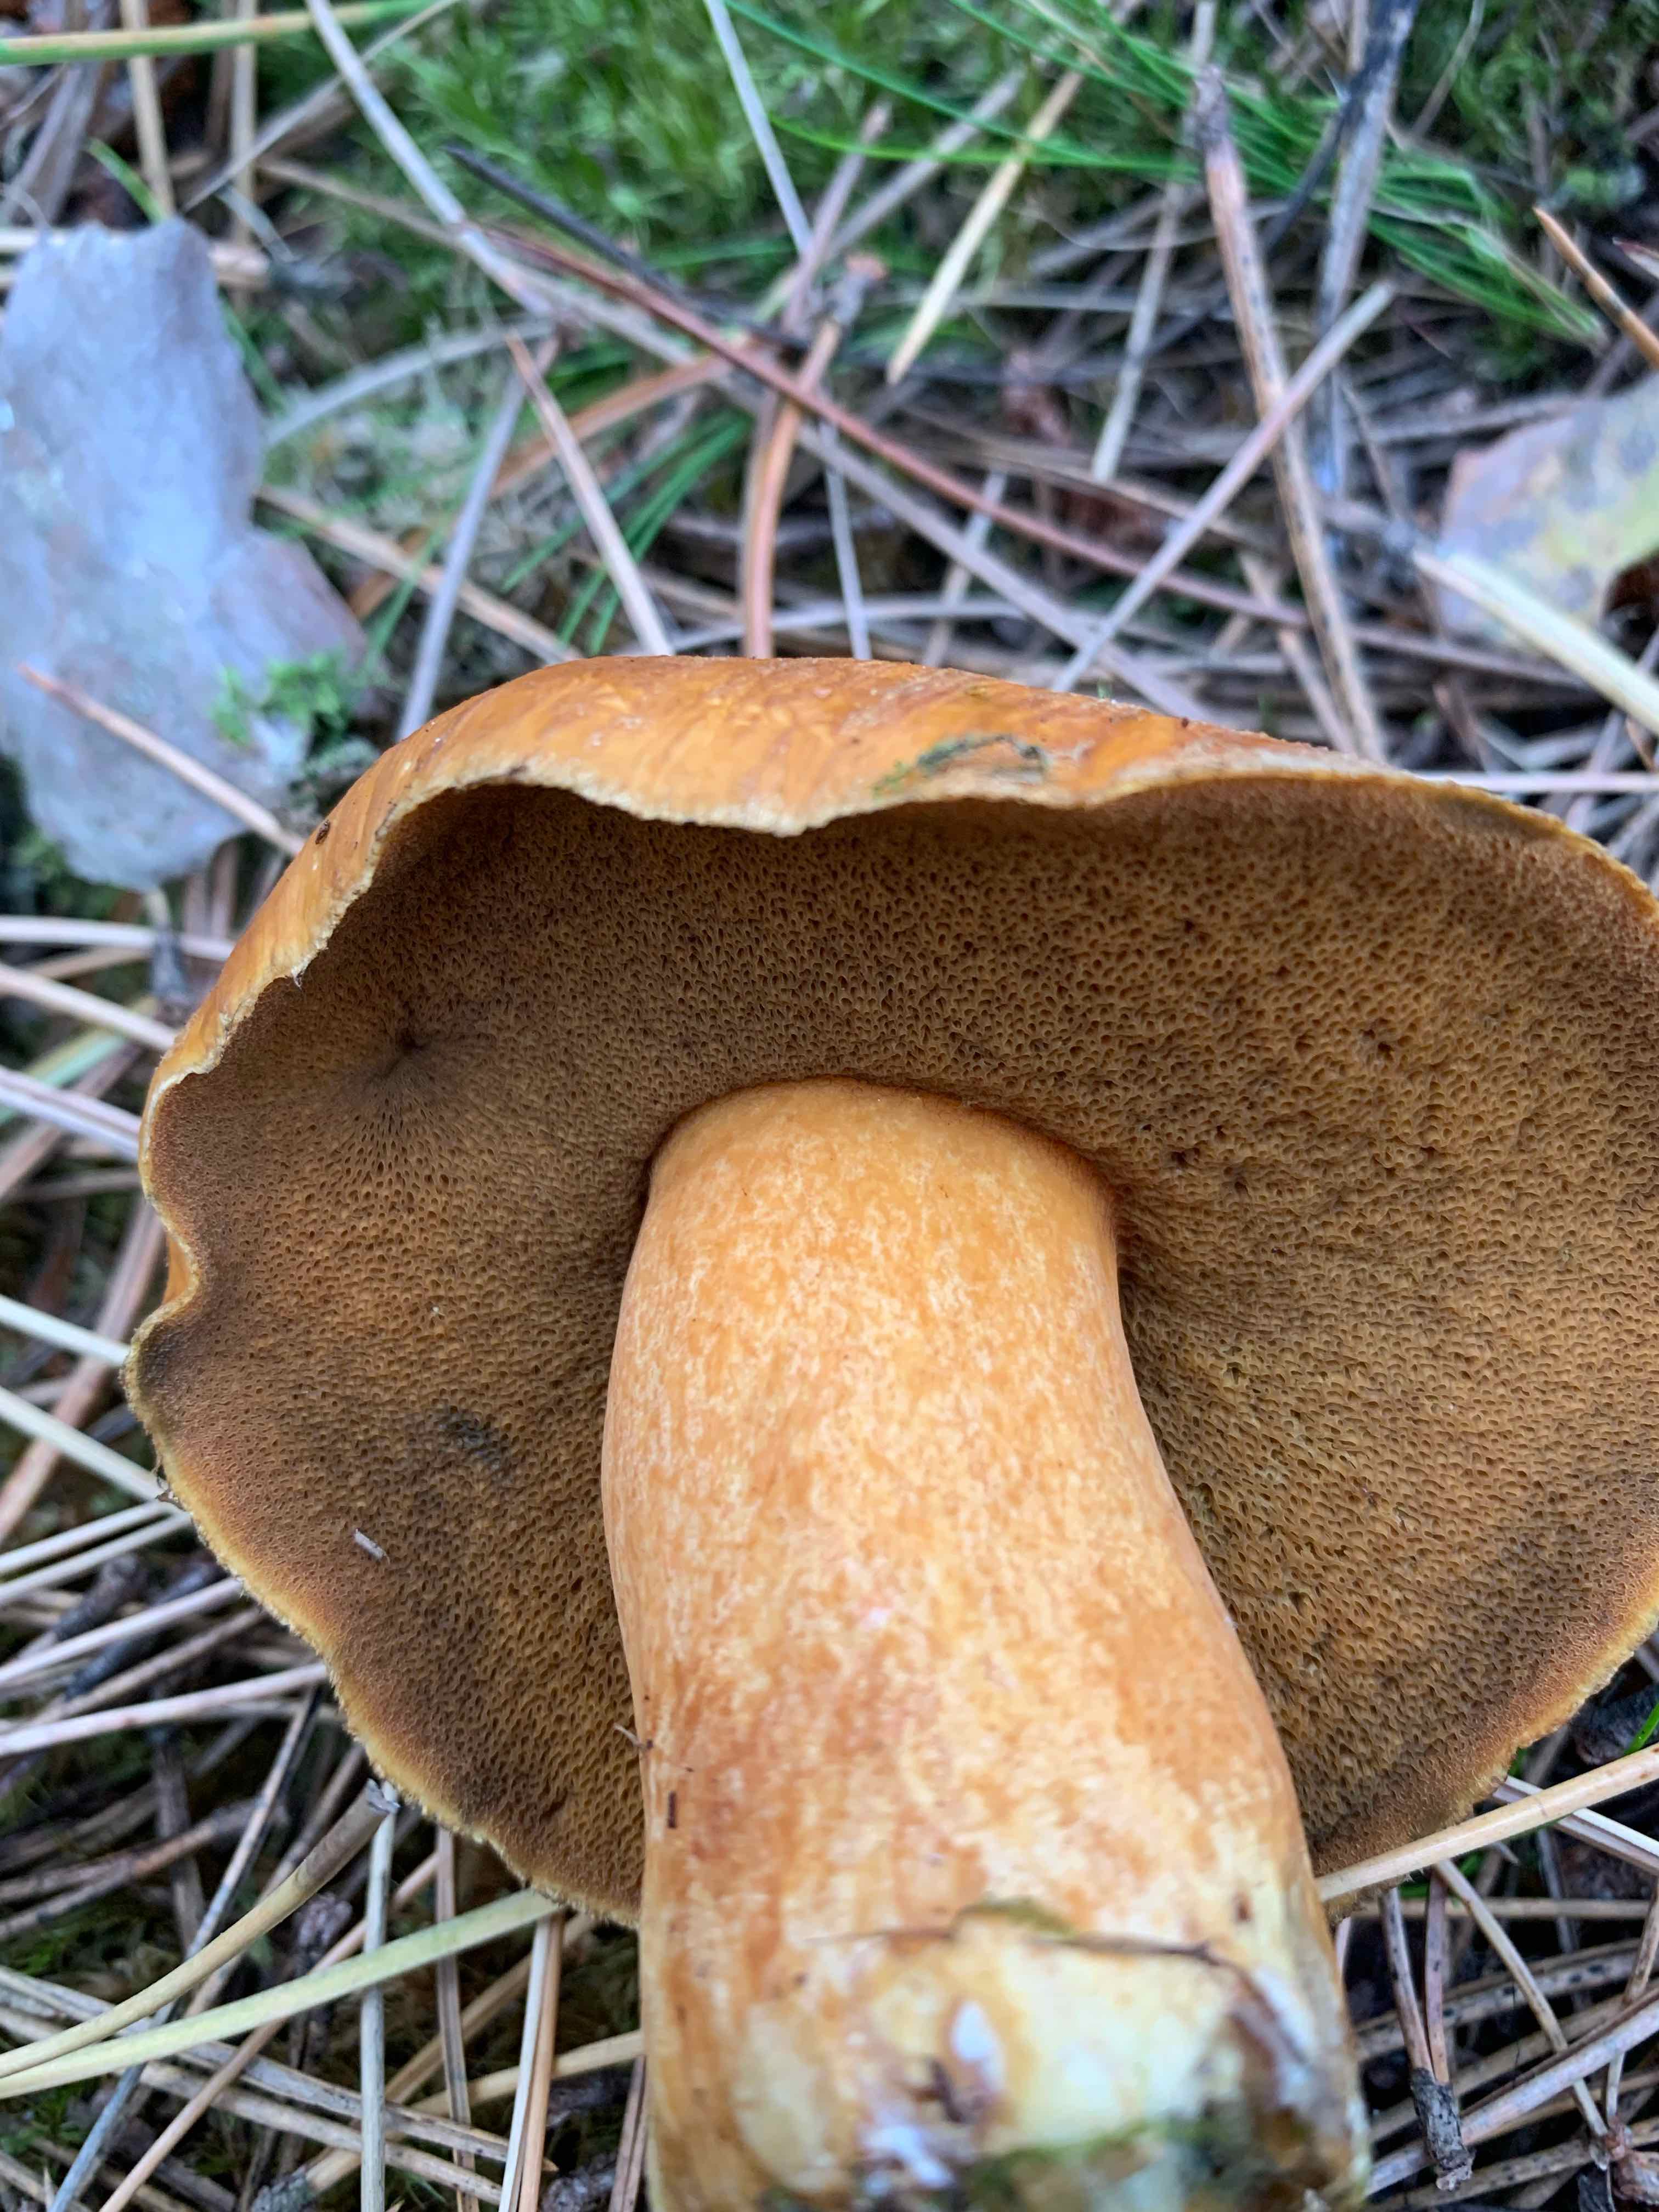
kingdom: Fungi
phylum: Basidiomycota
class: Agaricomycetes
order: Boletales
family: Suillaceae
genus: Suillus
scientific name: Suillus variegatus
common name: broget slimrørhat
